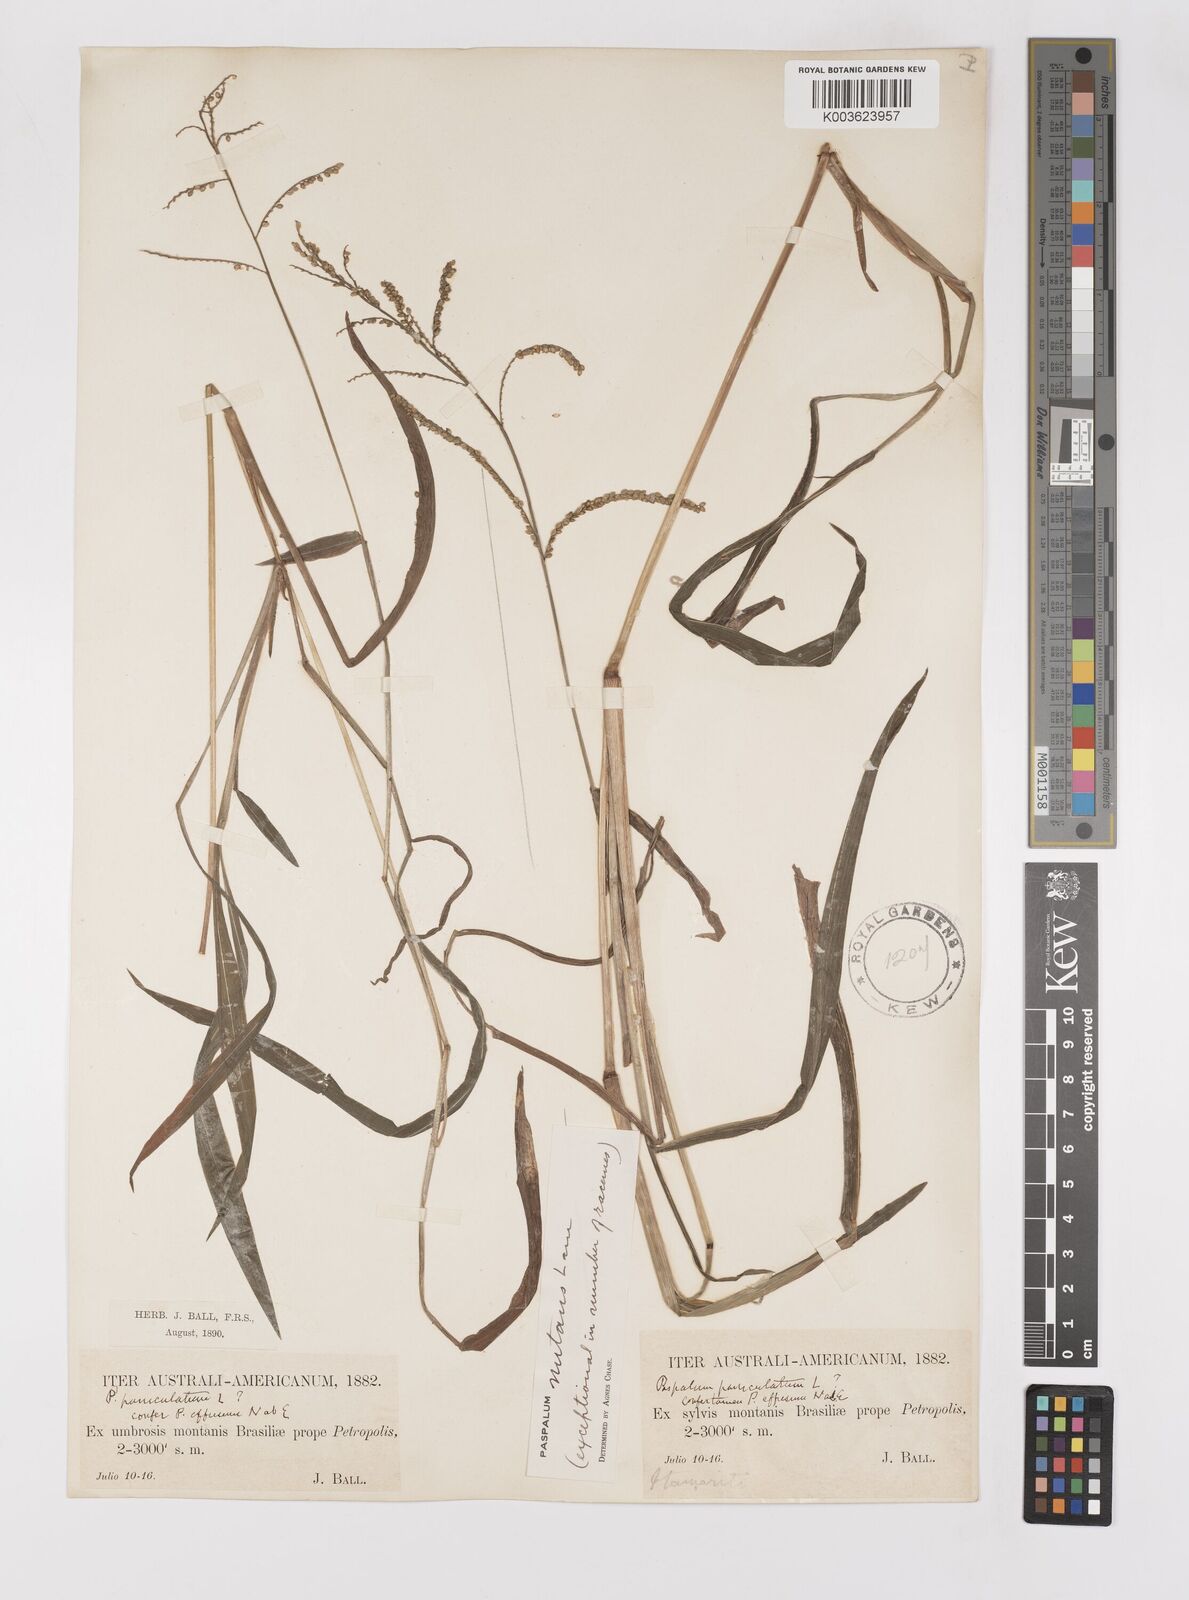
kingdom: Plantae
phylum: Tracheophyta
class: Liliopsida
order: Poales
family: Poaceae
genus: Paspalum
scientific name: Paspalum nutans
